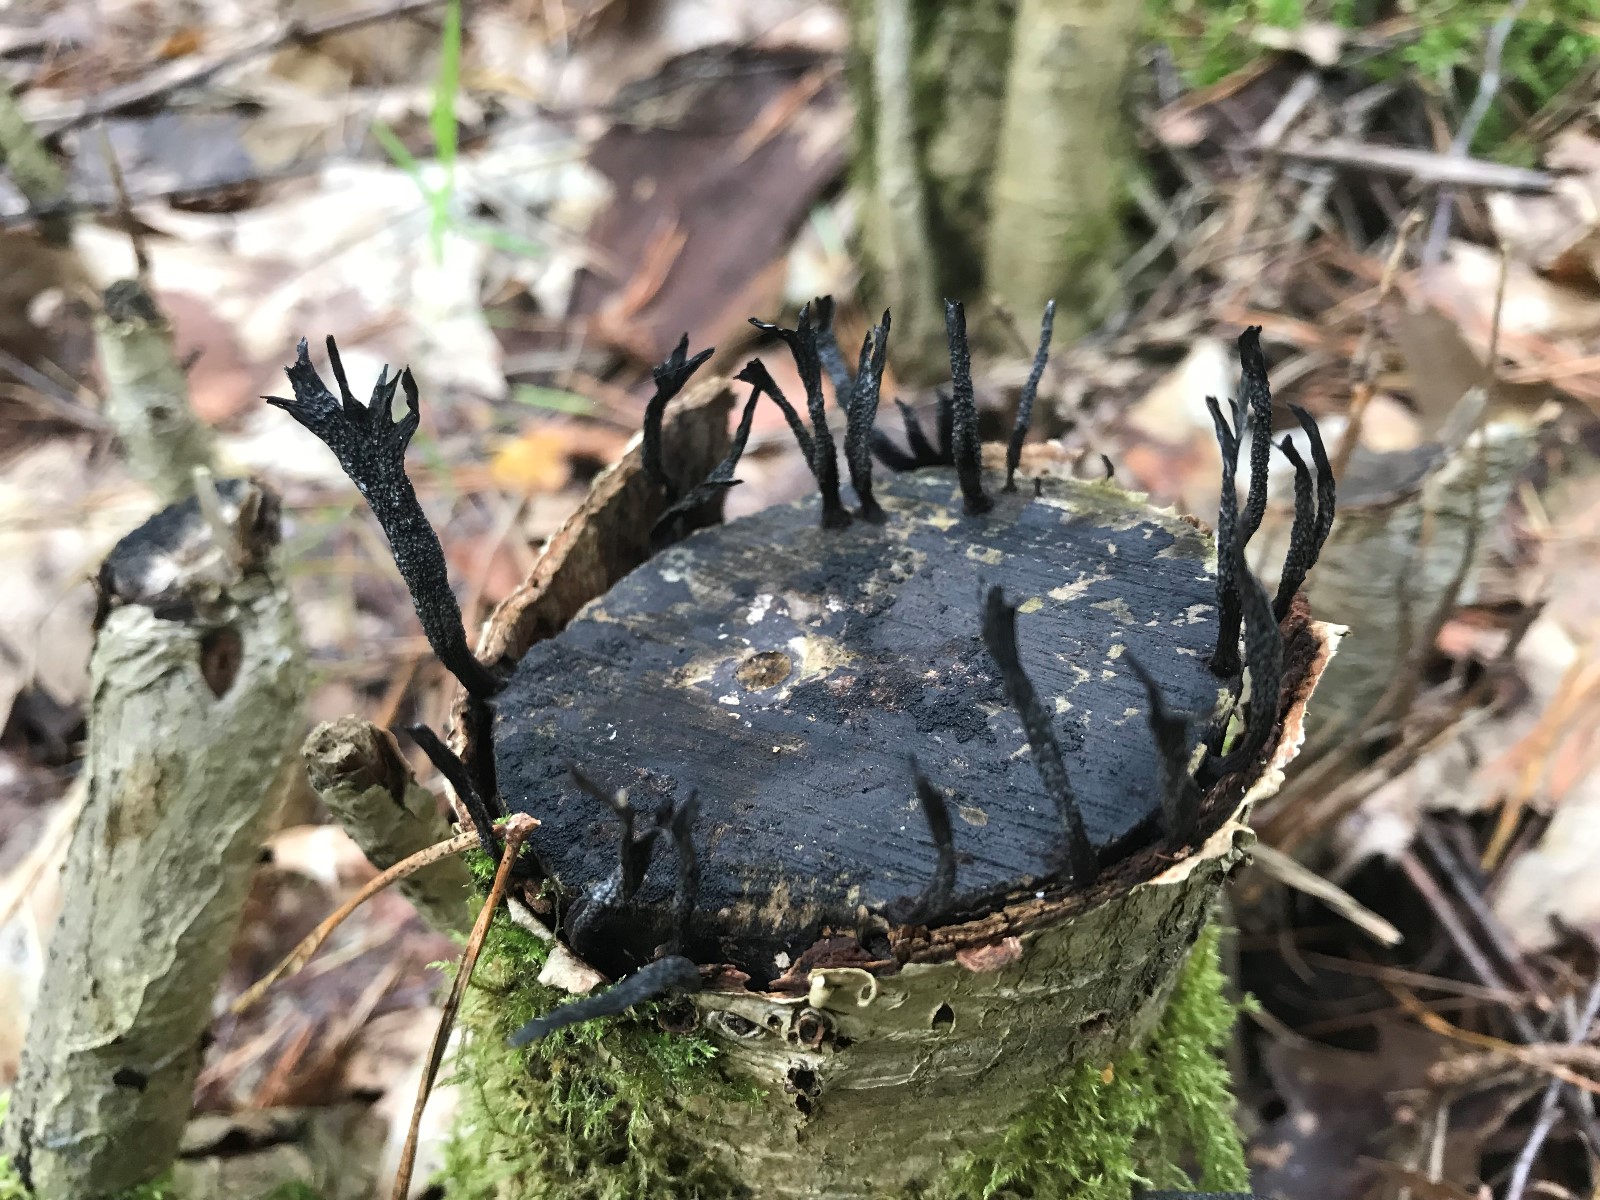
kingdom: Fungi
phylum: Ascomycota
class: Sordariomycetes
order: Xylariales
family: Xylariaceae
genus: Xylaria
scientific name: Xylaria hypoxylon
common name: grenet stødsvamp
